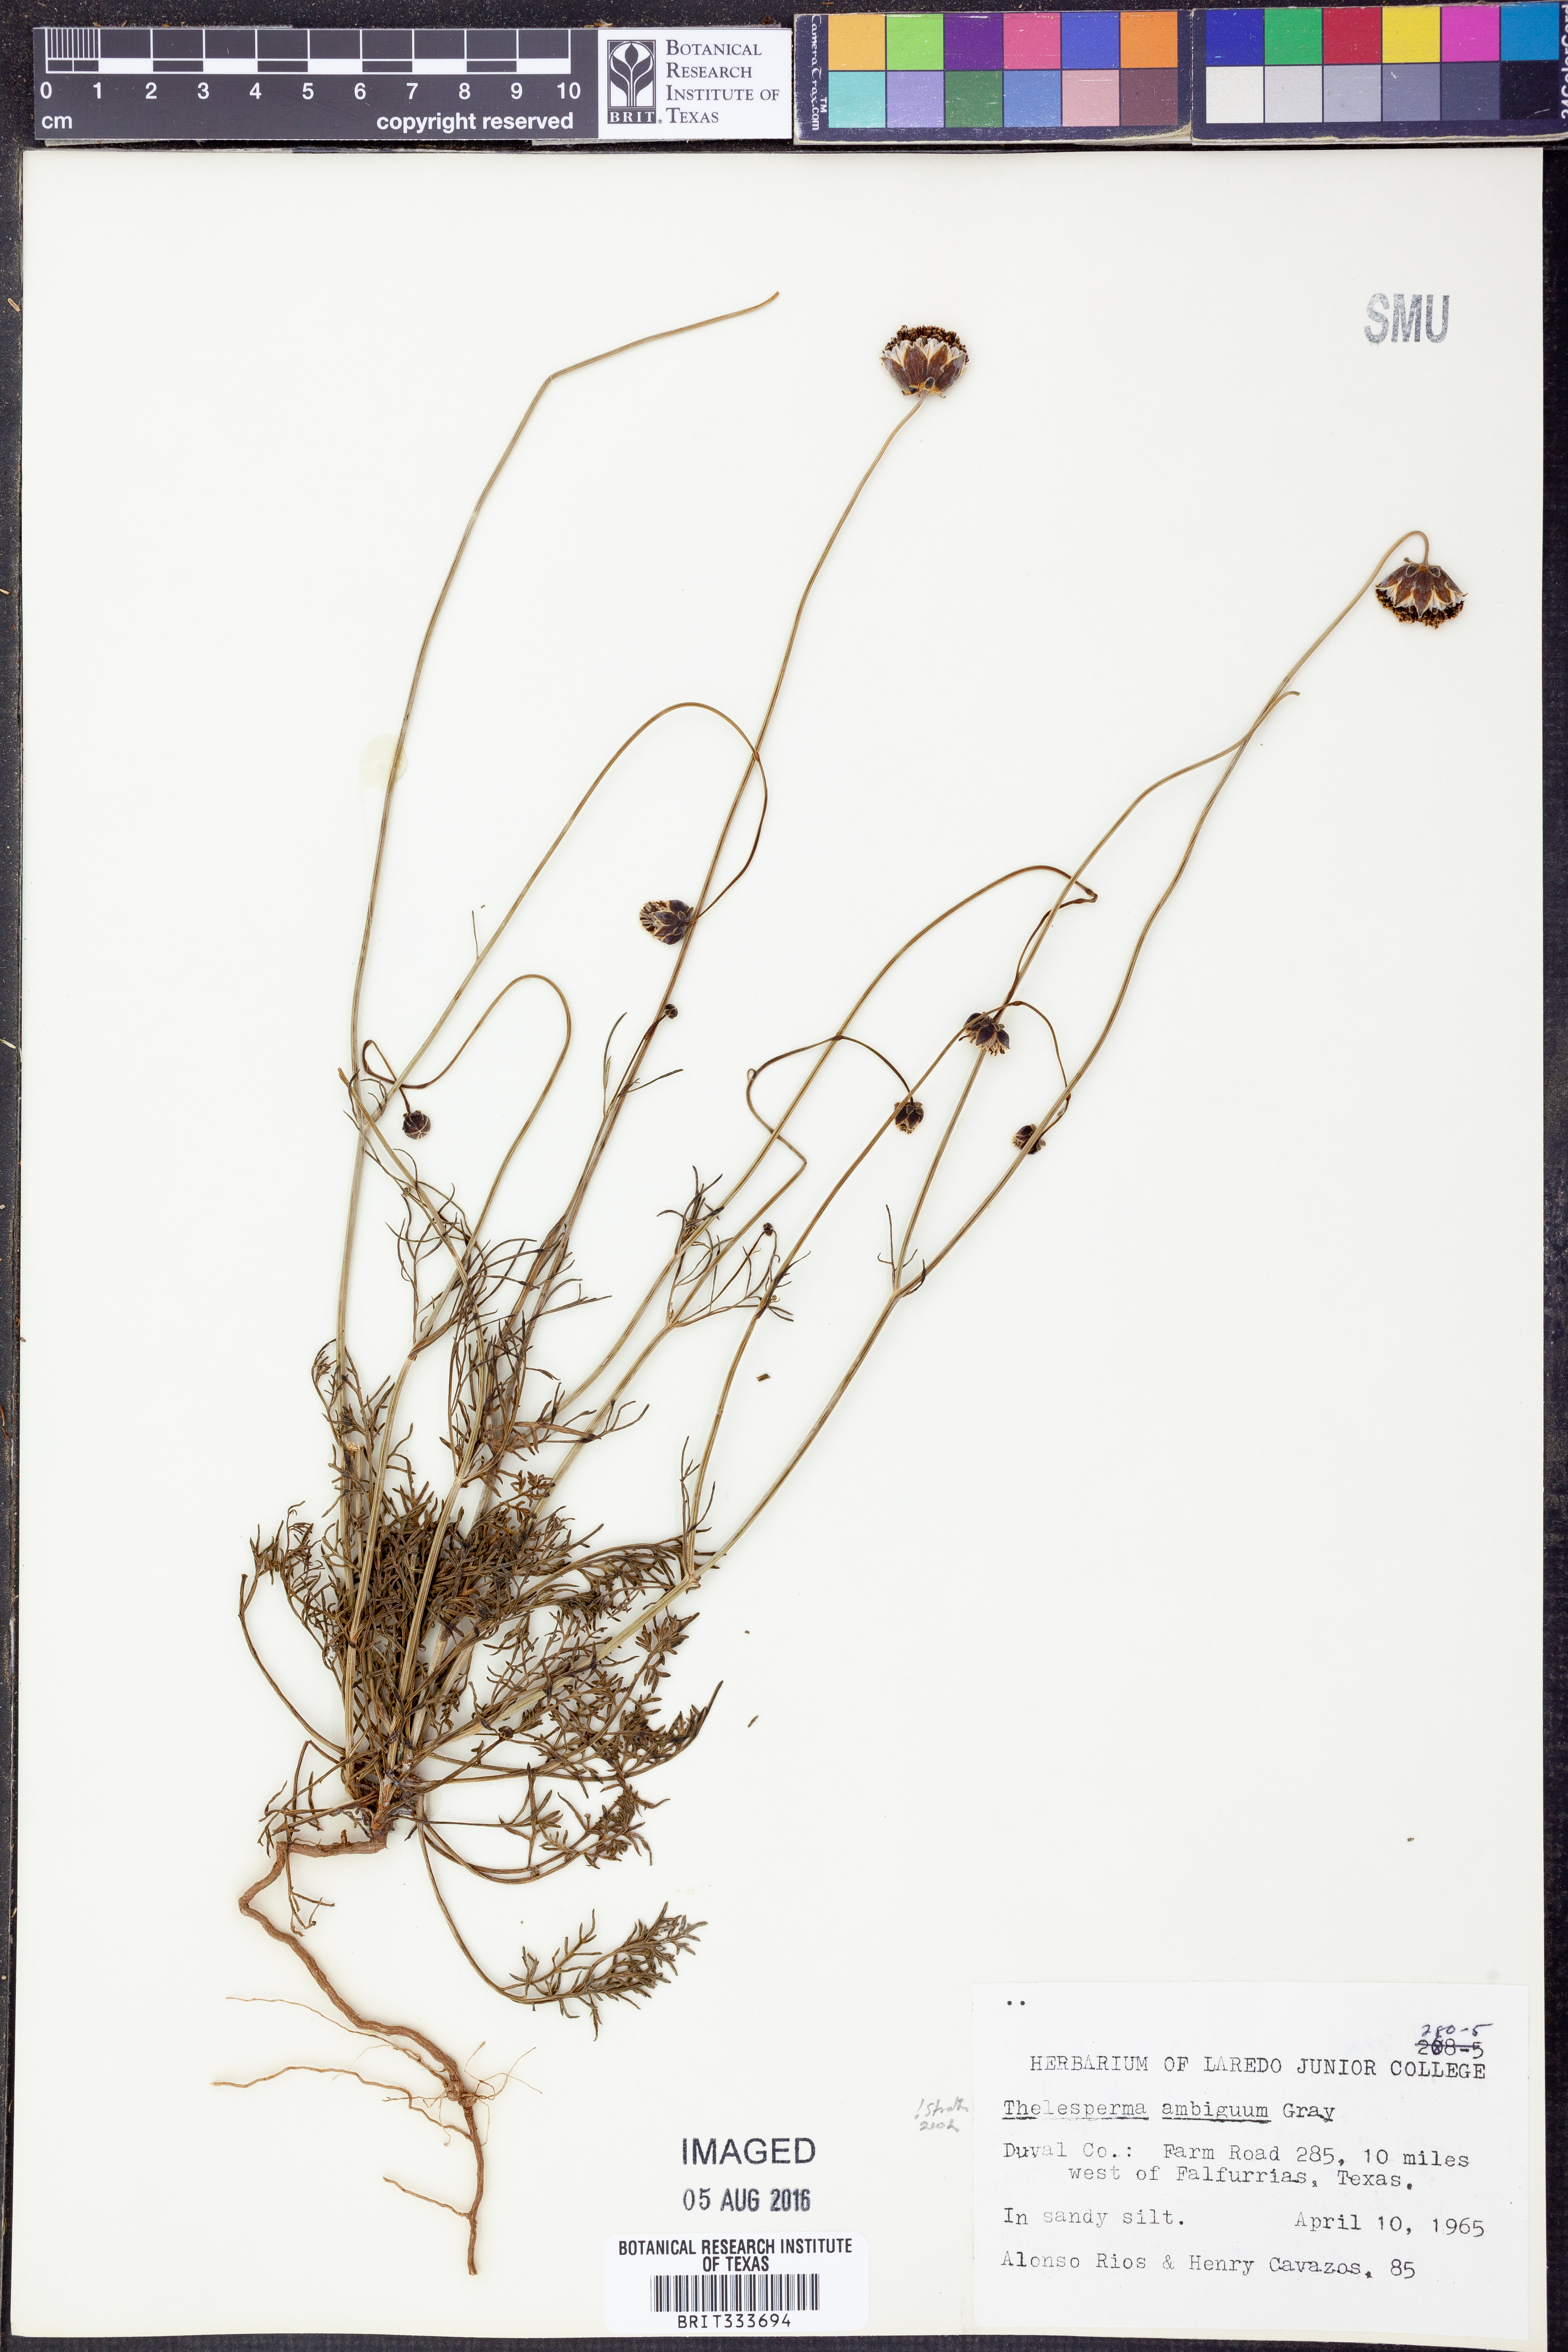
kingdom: Plantae
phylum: Tracheophyta
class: Magnoliopsida
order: Asterales
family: Asteraceae
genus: Thelesperma
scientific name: Thelesperma ambiguum
